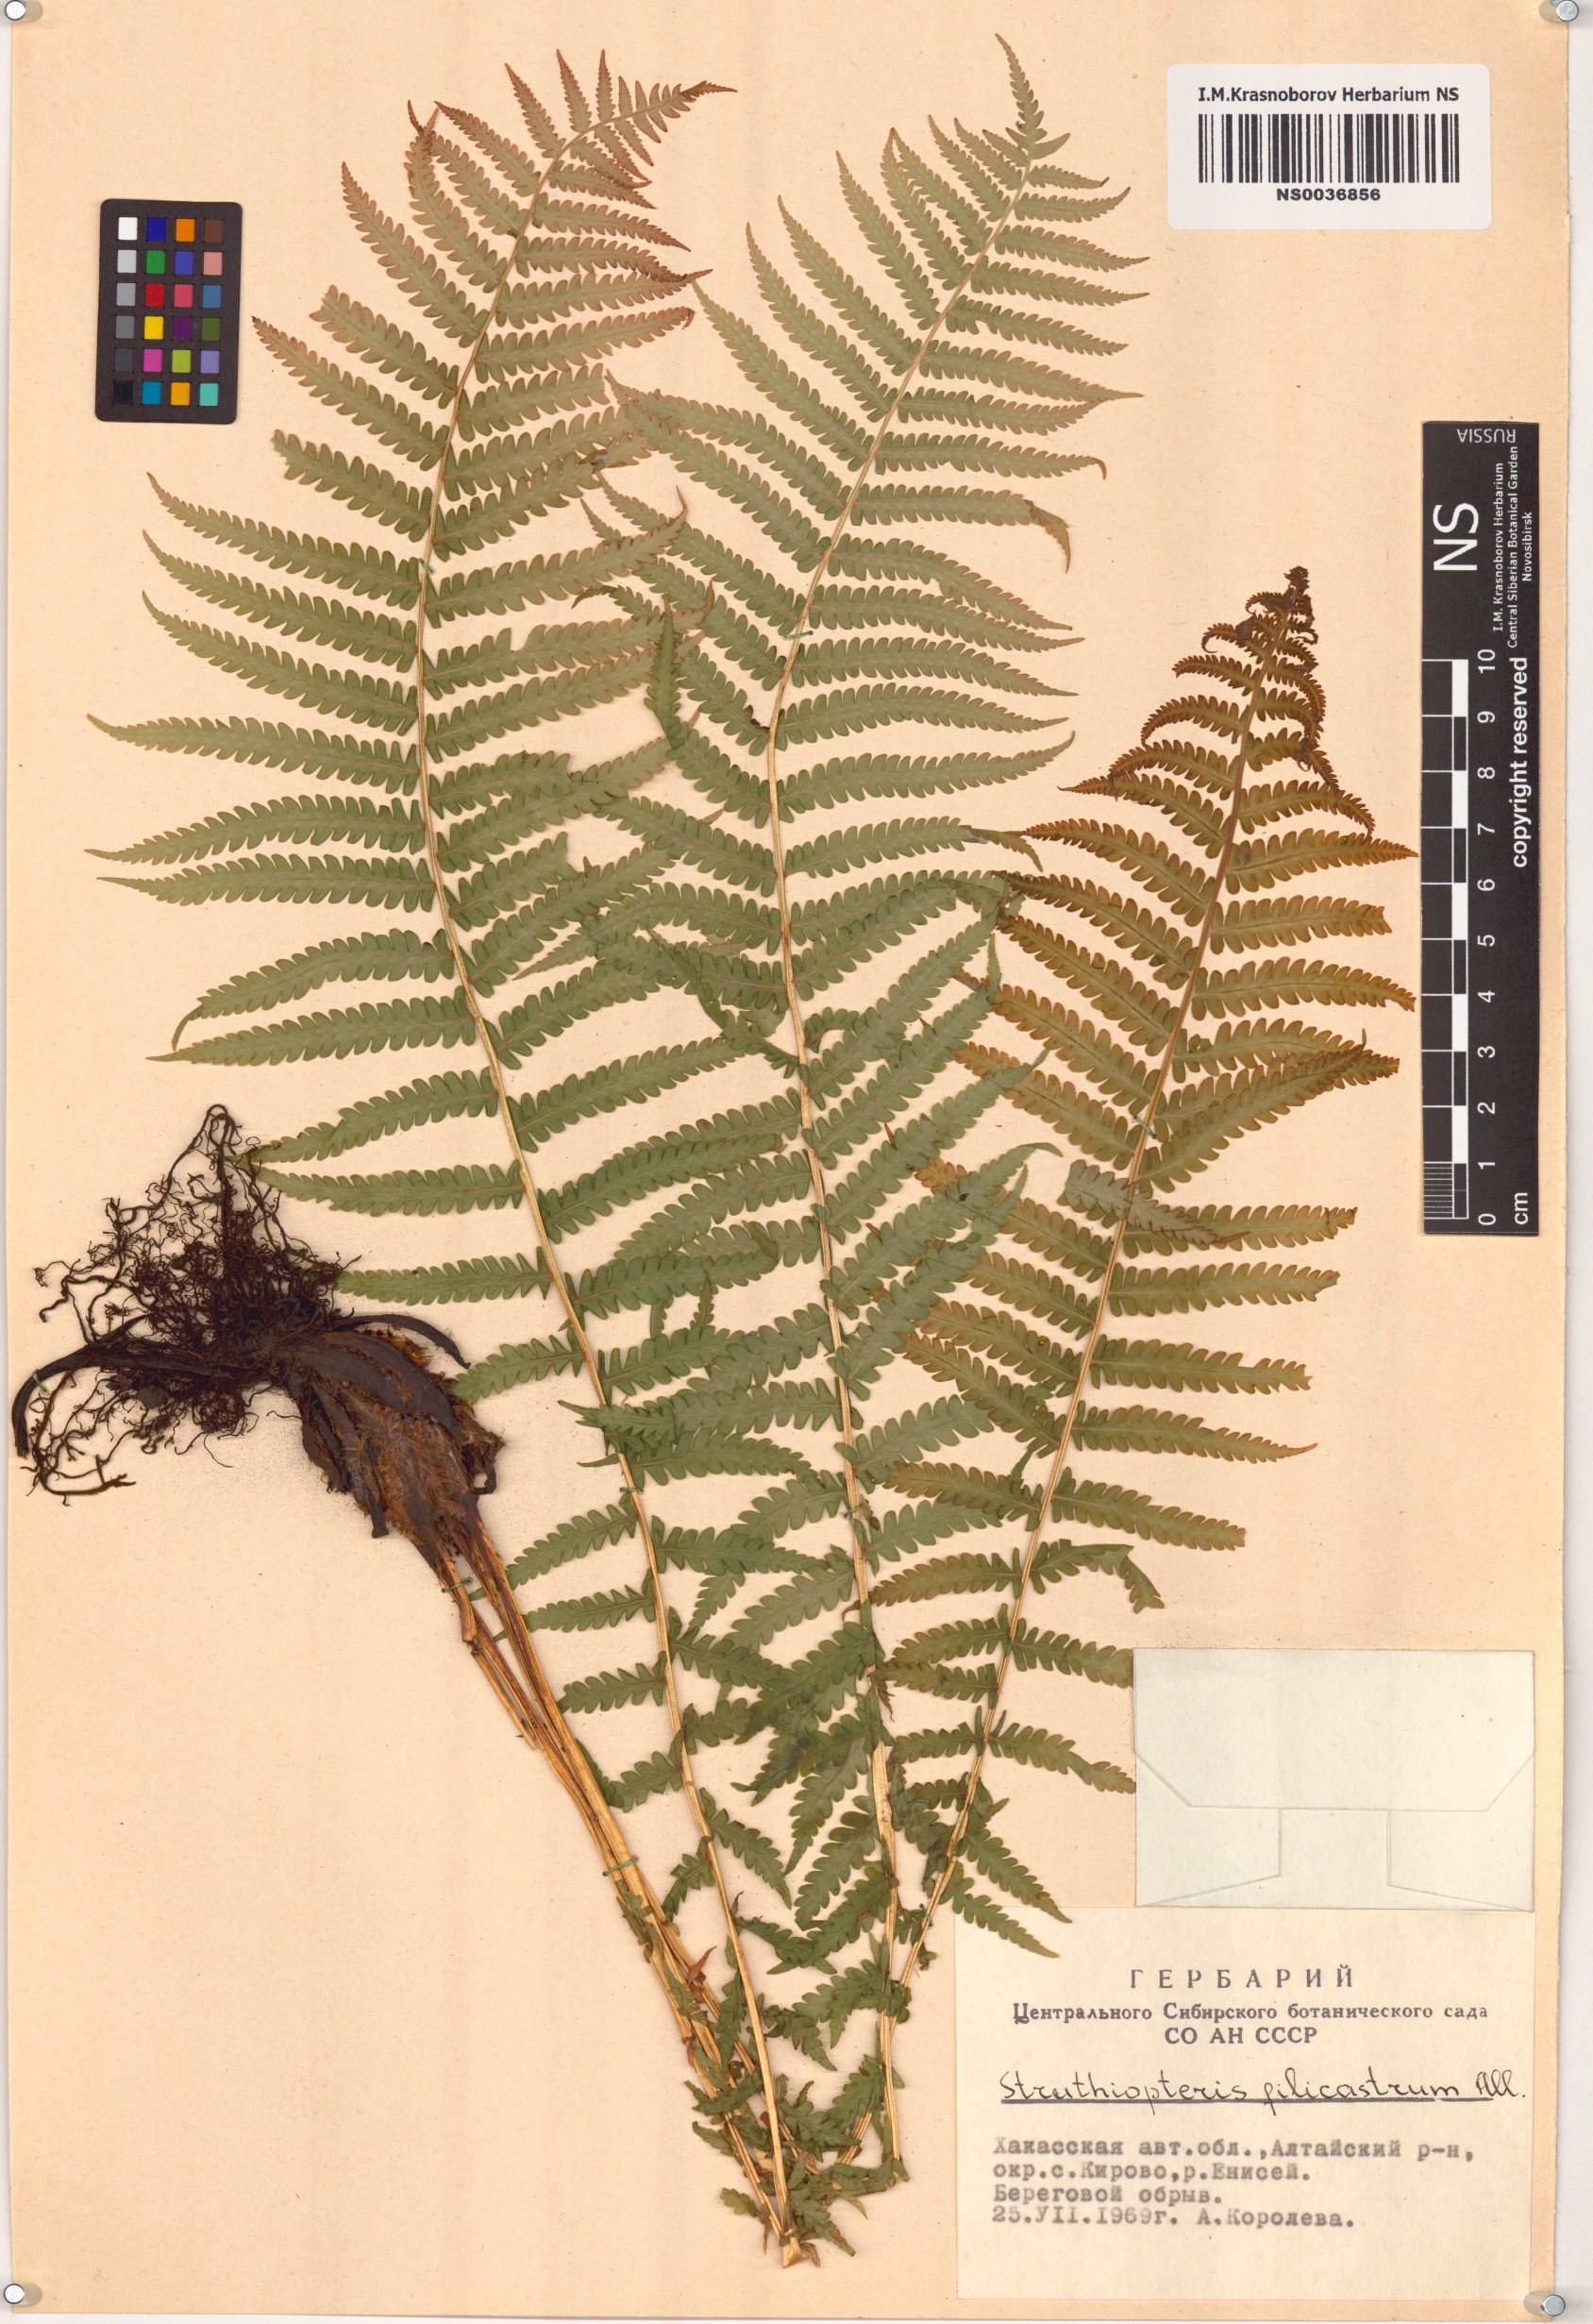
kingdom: Plantae
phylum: Tracheophyta
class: Polypodiopsida
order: Polypodiales
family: Onocleaceae
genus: Matteuccia
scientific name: Matteuccia struthiopteris
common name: Ostrich fern
